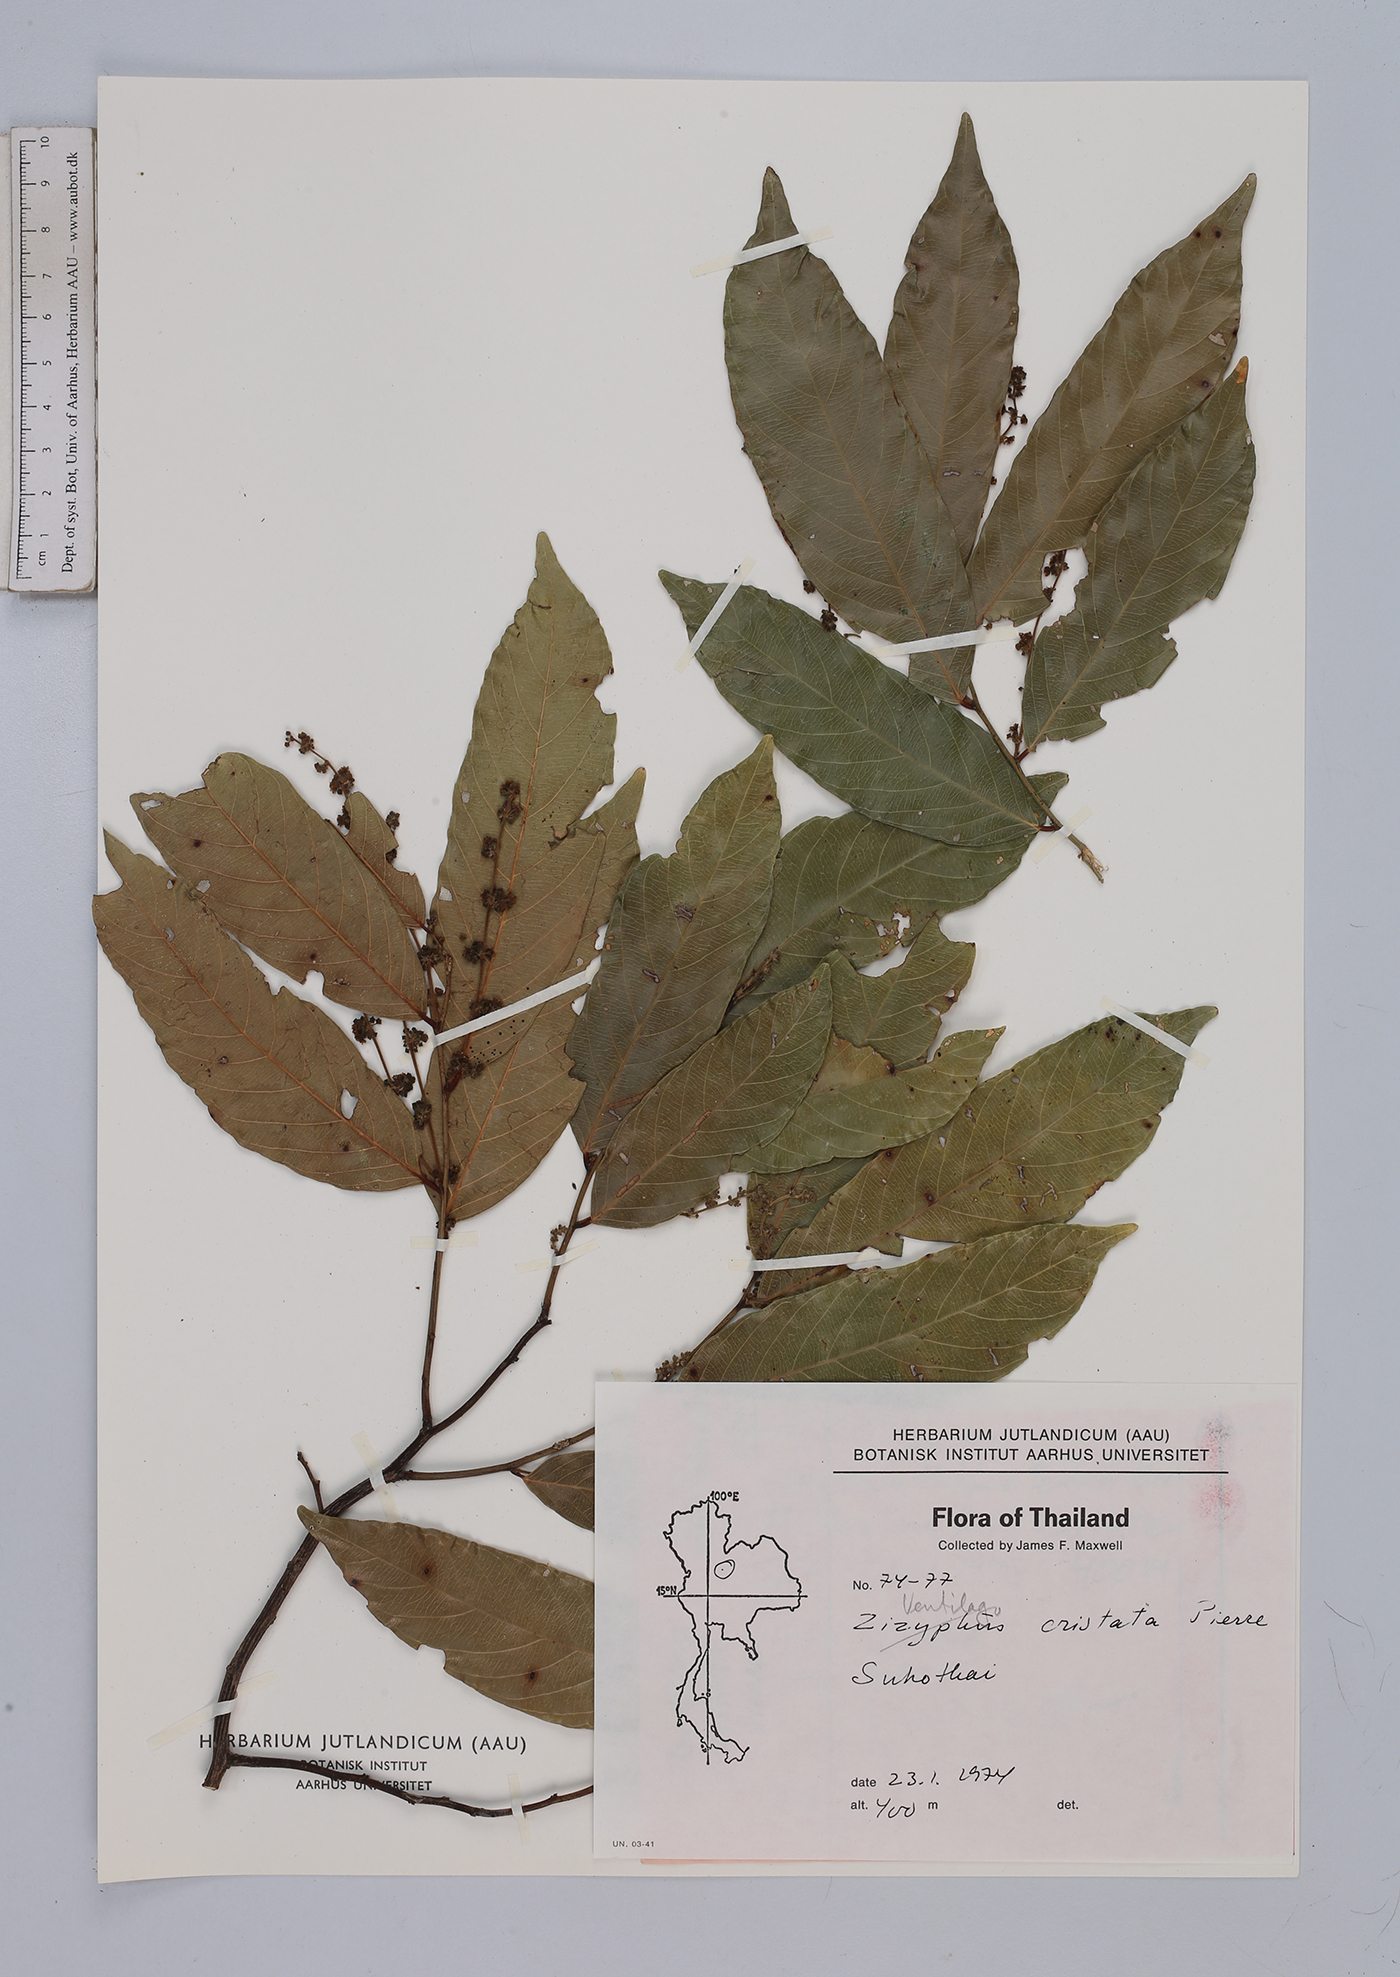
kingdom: Plantae
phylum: Tracheophyta
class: Magnoliopsida
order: Rosales
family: Rhamnaceae
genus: Ventilago
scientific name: Ventilago cristata
